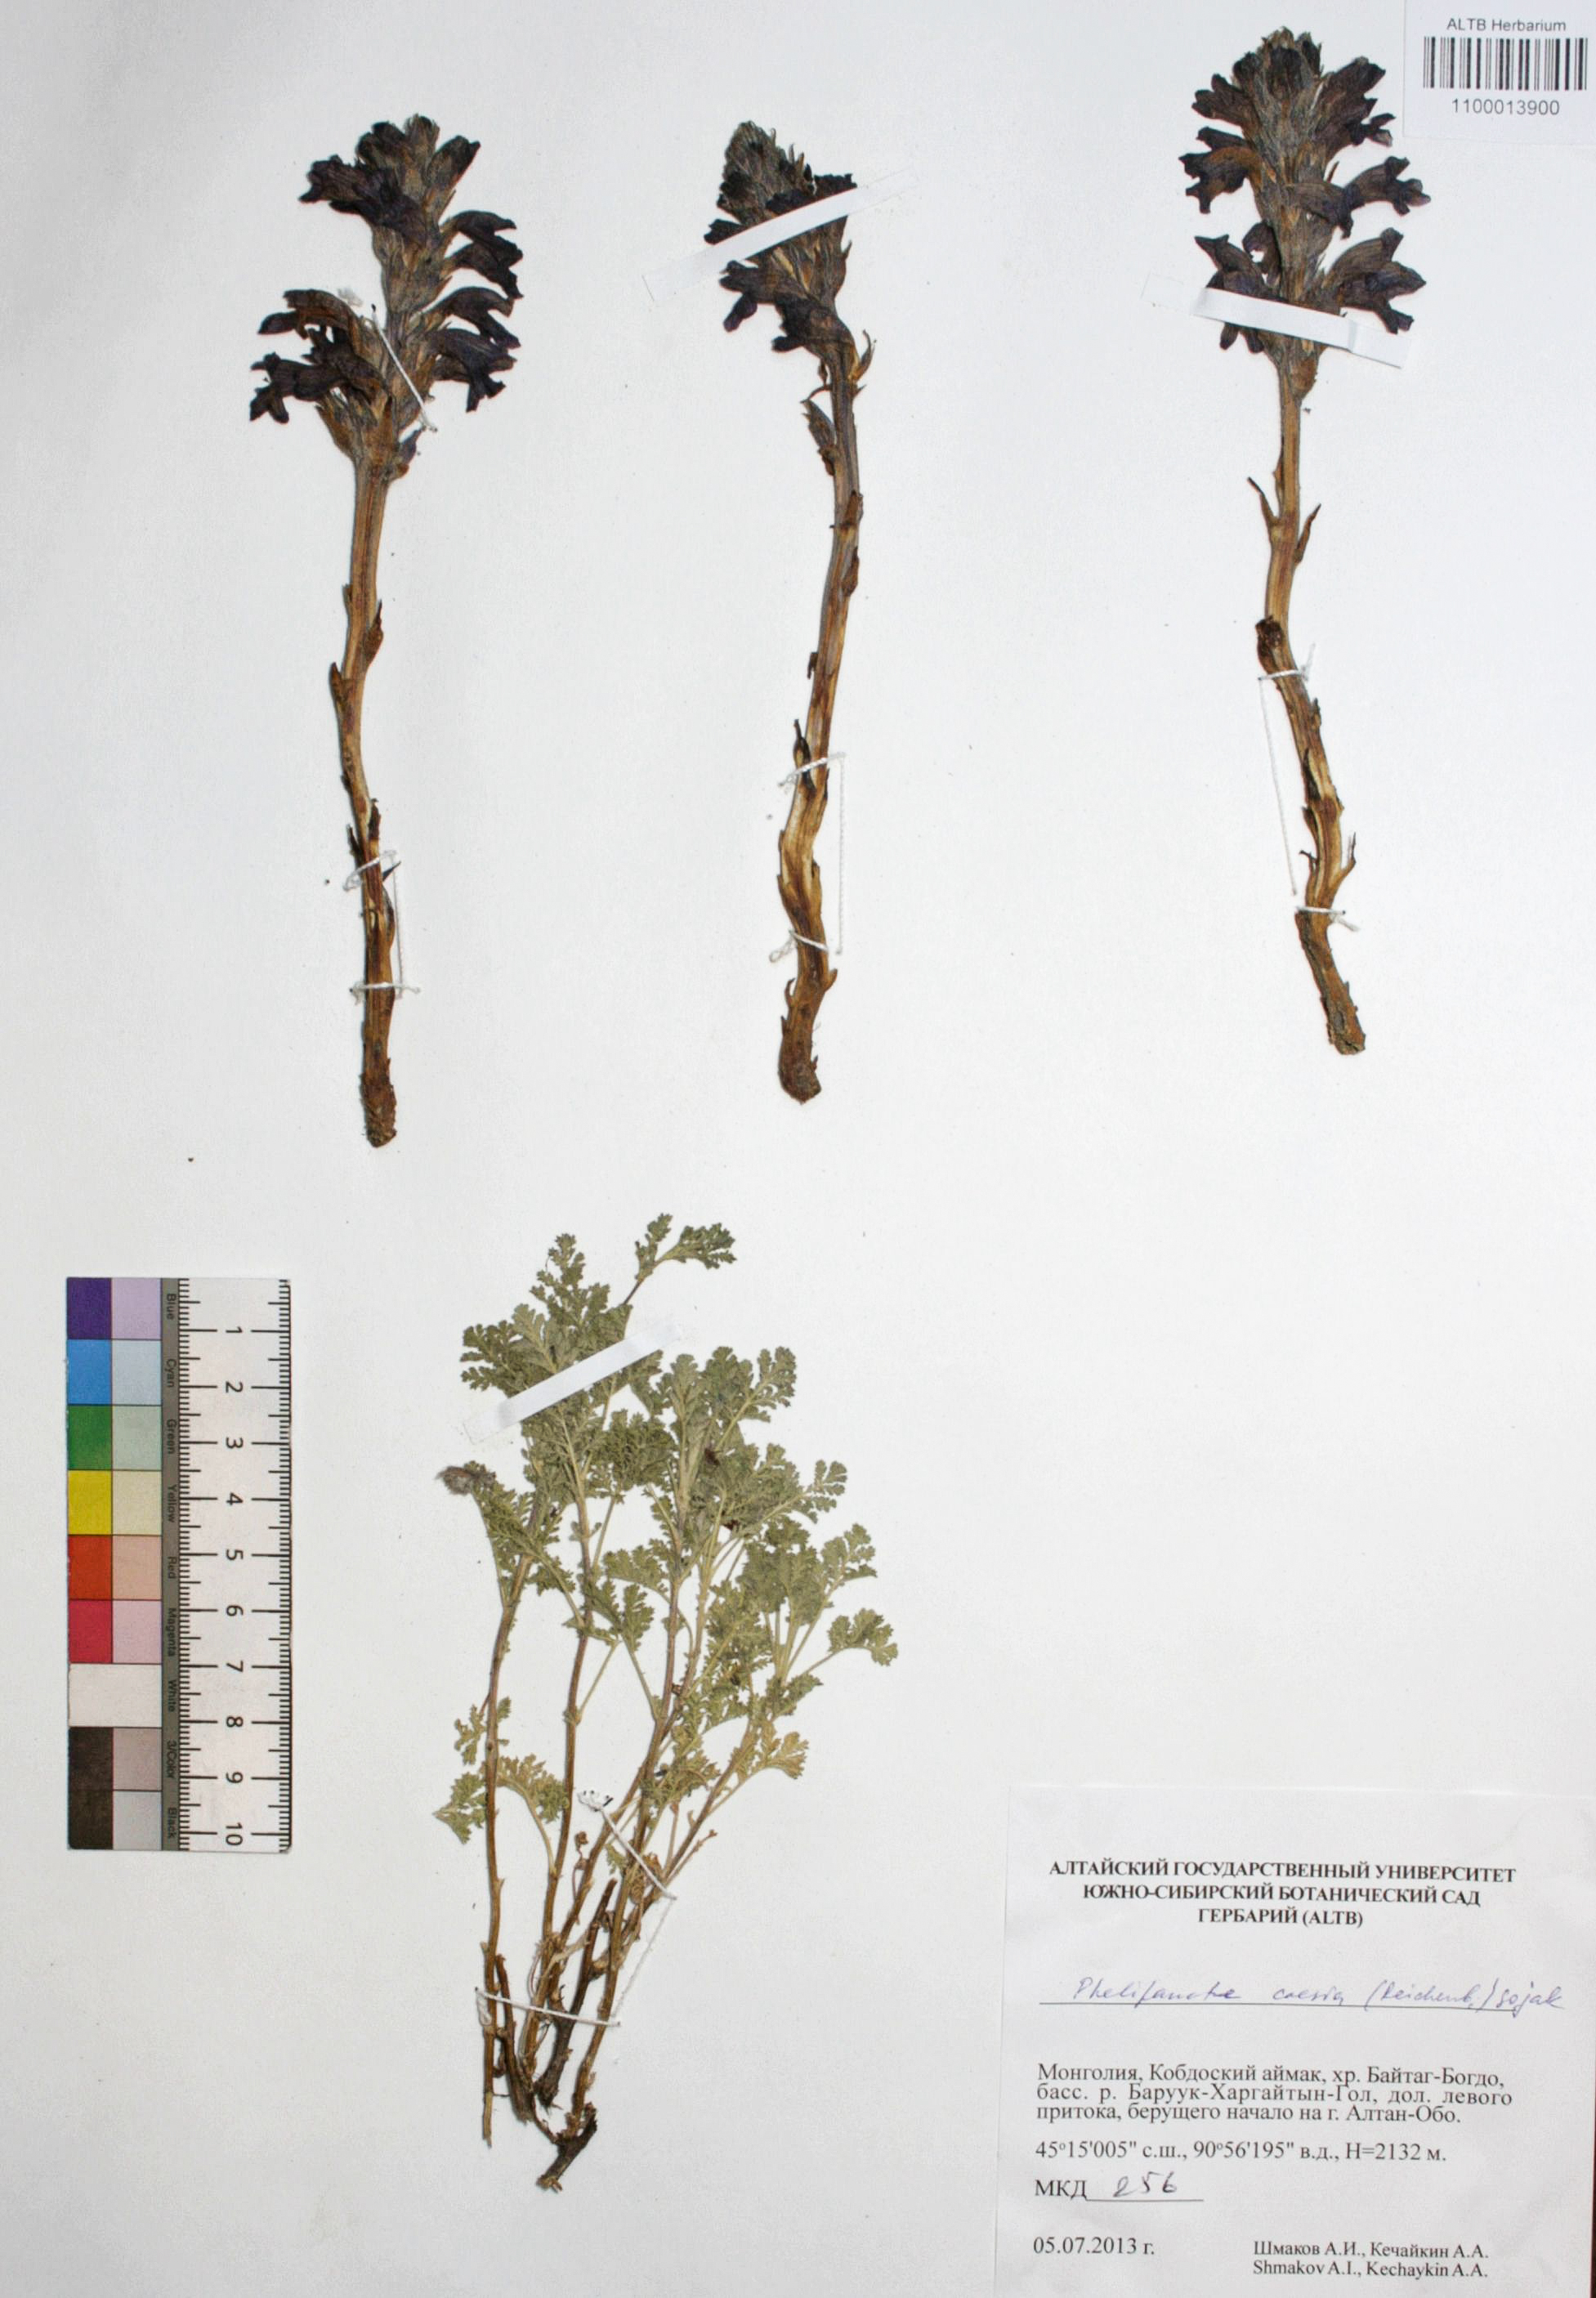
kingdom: Plantae
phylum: Tracheophyta
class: Magnoliopsida
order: Lamiales
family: Orobanchaceae
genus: Phelipanche
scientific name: Phelipanche caesia
